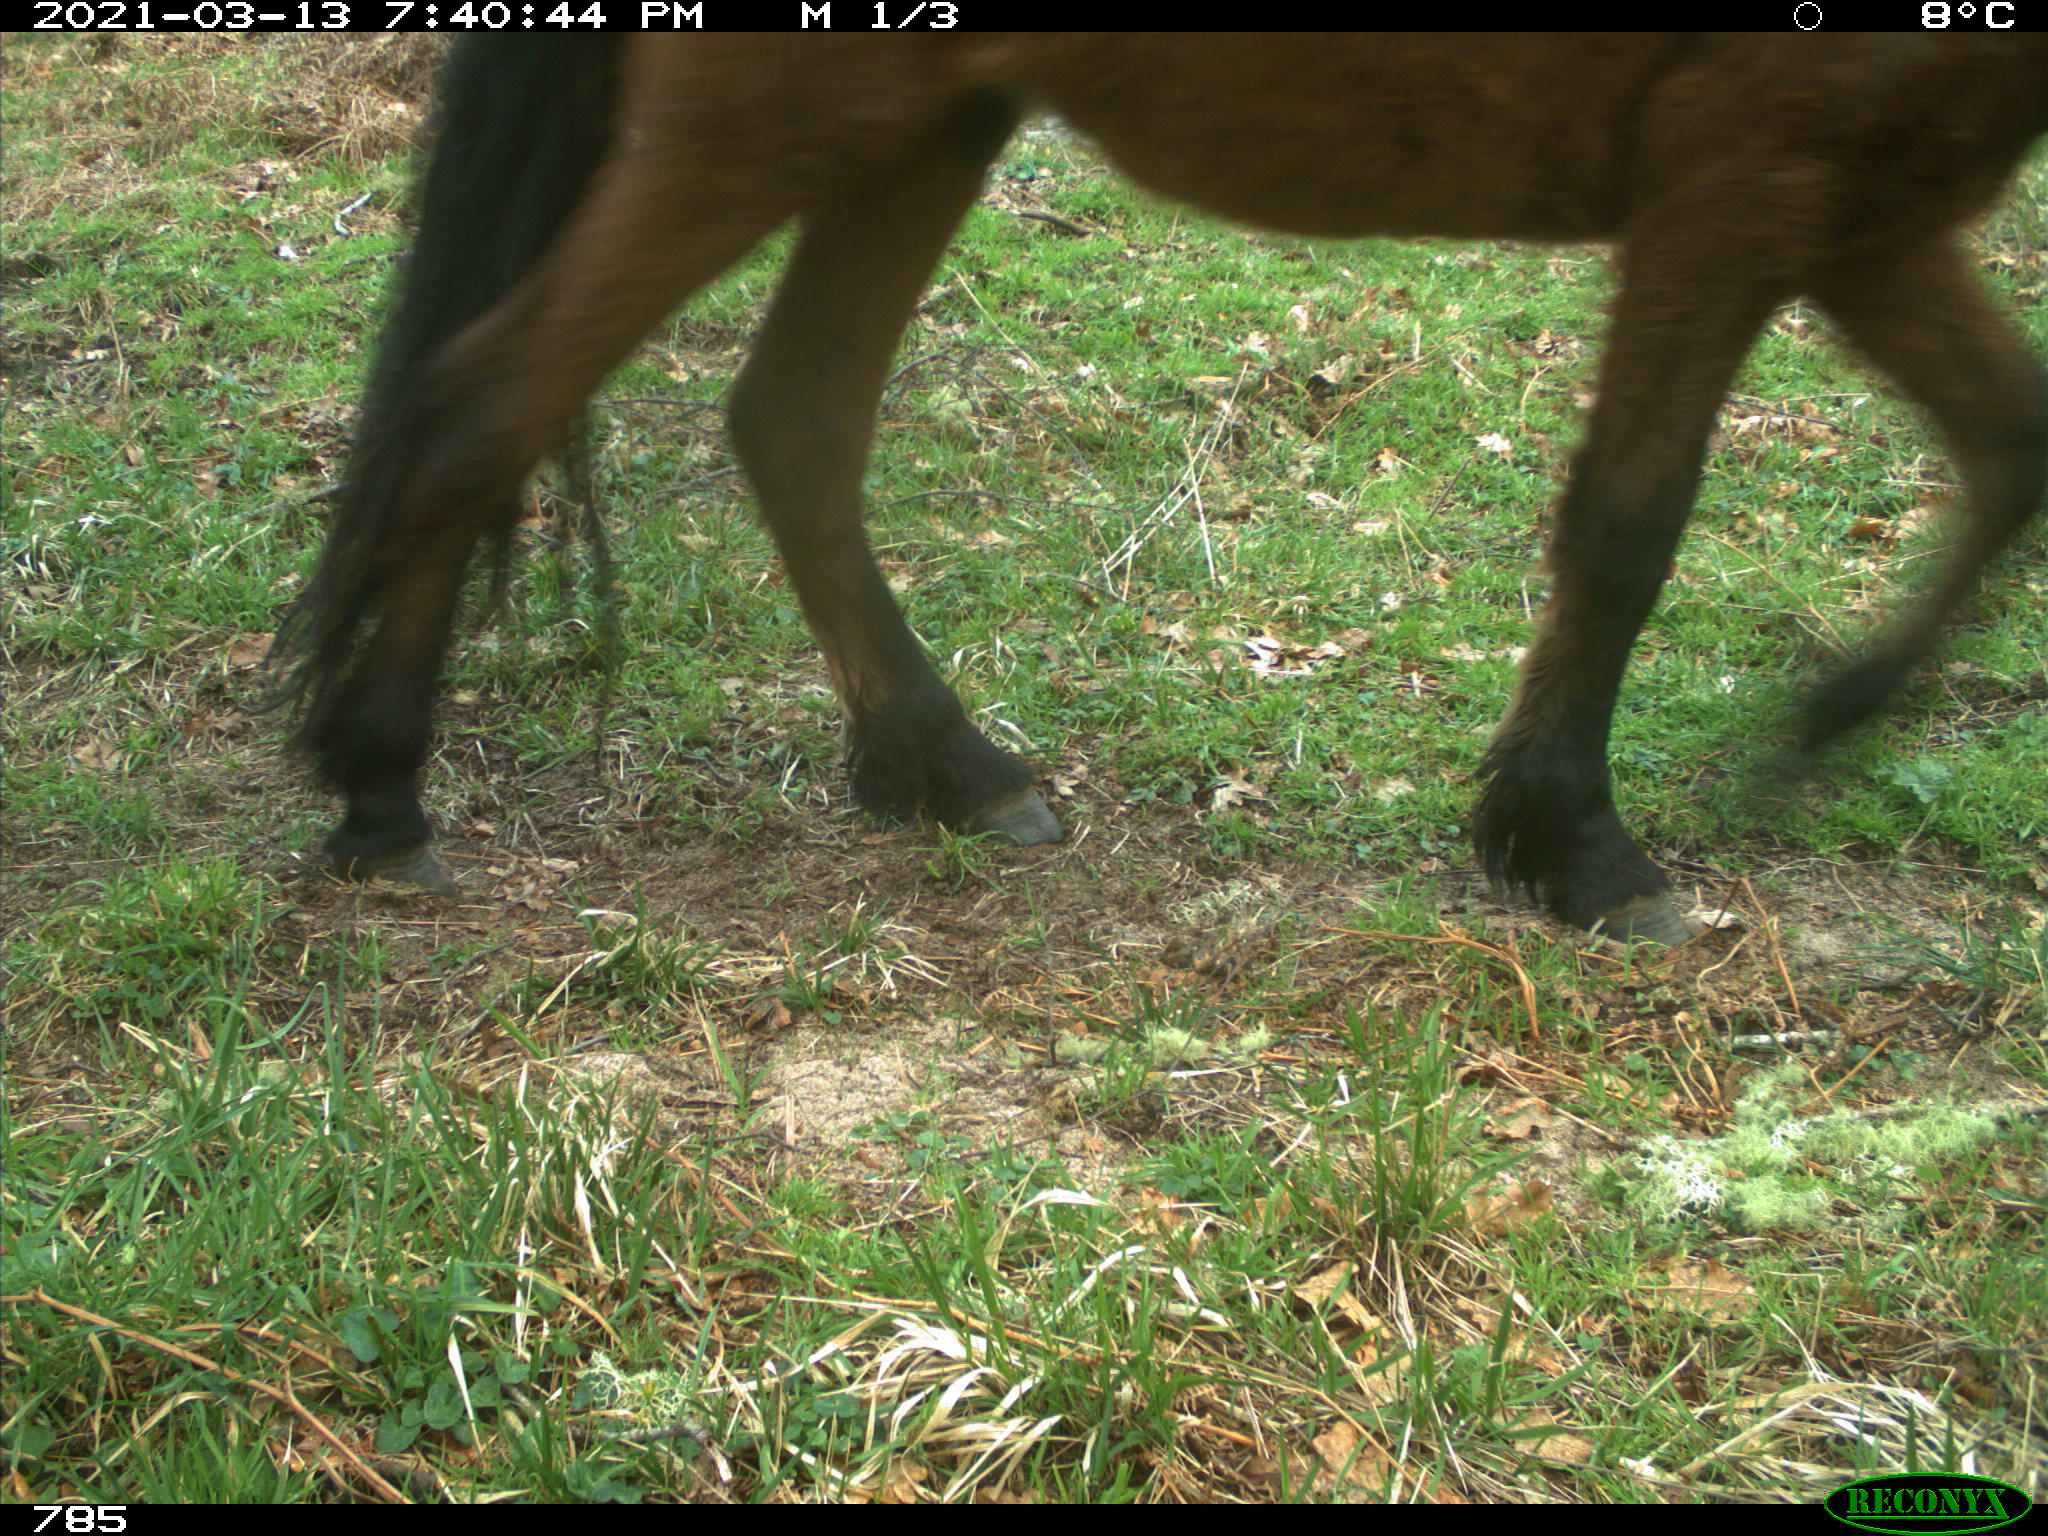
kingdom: Animalia
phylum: Chordata
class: Mammalia
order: Perissodactyla
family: Equidae
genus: Equus
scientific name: Equus caballus
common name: Horse
